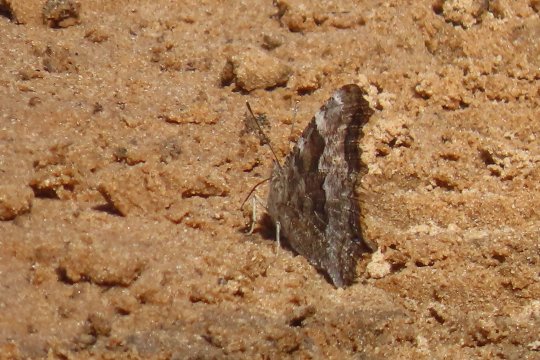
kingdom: Animalia
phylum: Arthropoda
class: Insecta
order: Lepidoptera
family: Nymphalidae
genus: Polygonia
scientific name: Polygonia vaualbum
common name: Compton Tortoiseshell
